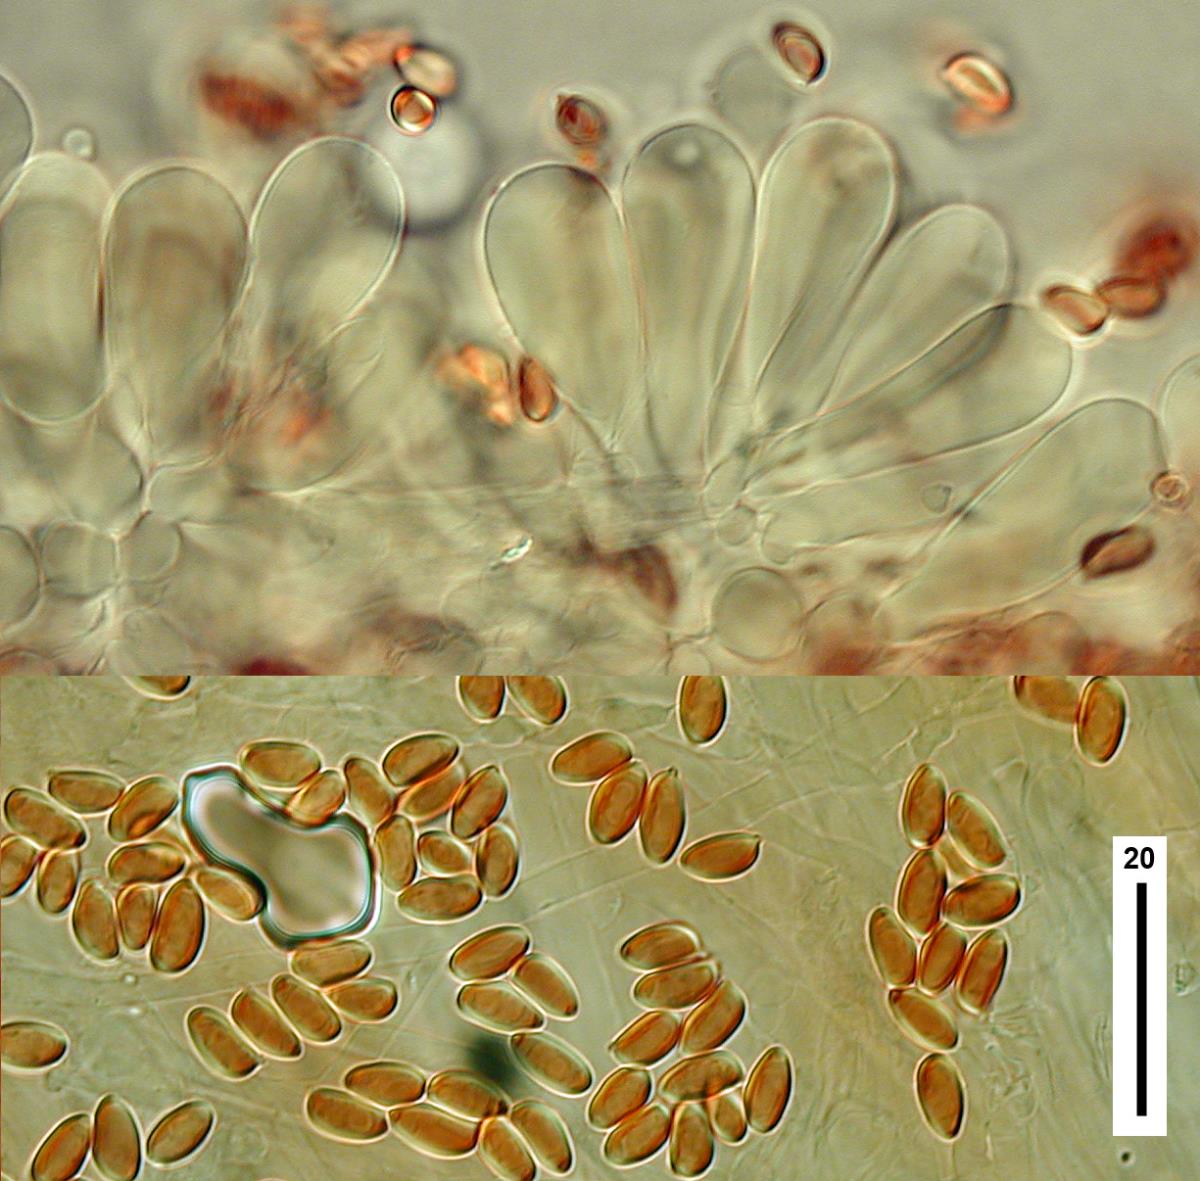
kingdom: Fungi
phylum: Basidiomycota
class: Agaricomycetes
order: Agaricales
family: Agaricaceae
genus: Leucoagaricus
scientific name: Leucoagaricus
